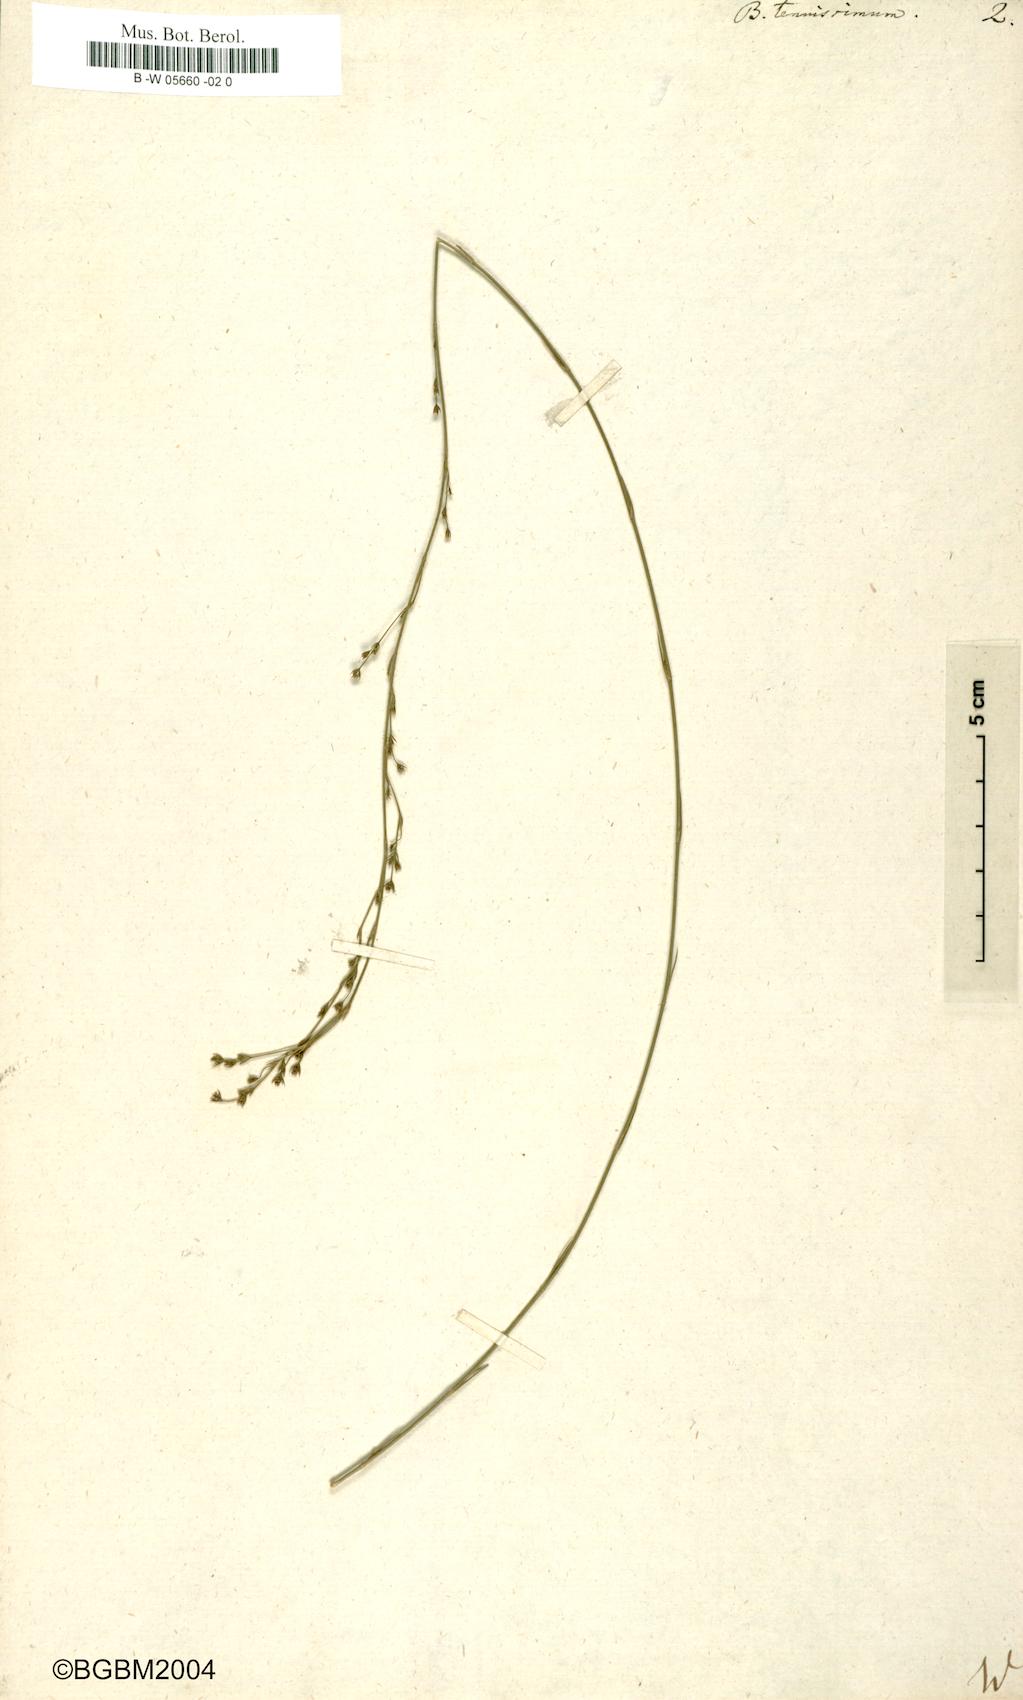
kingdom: Plantae
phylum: Tracheophyta
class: Magnoliopsida
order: Apiales
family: Apiaceae
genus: Bupleurum
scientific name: Bupleurum tenuissimum
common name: Slender hare's-ear
